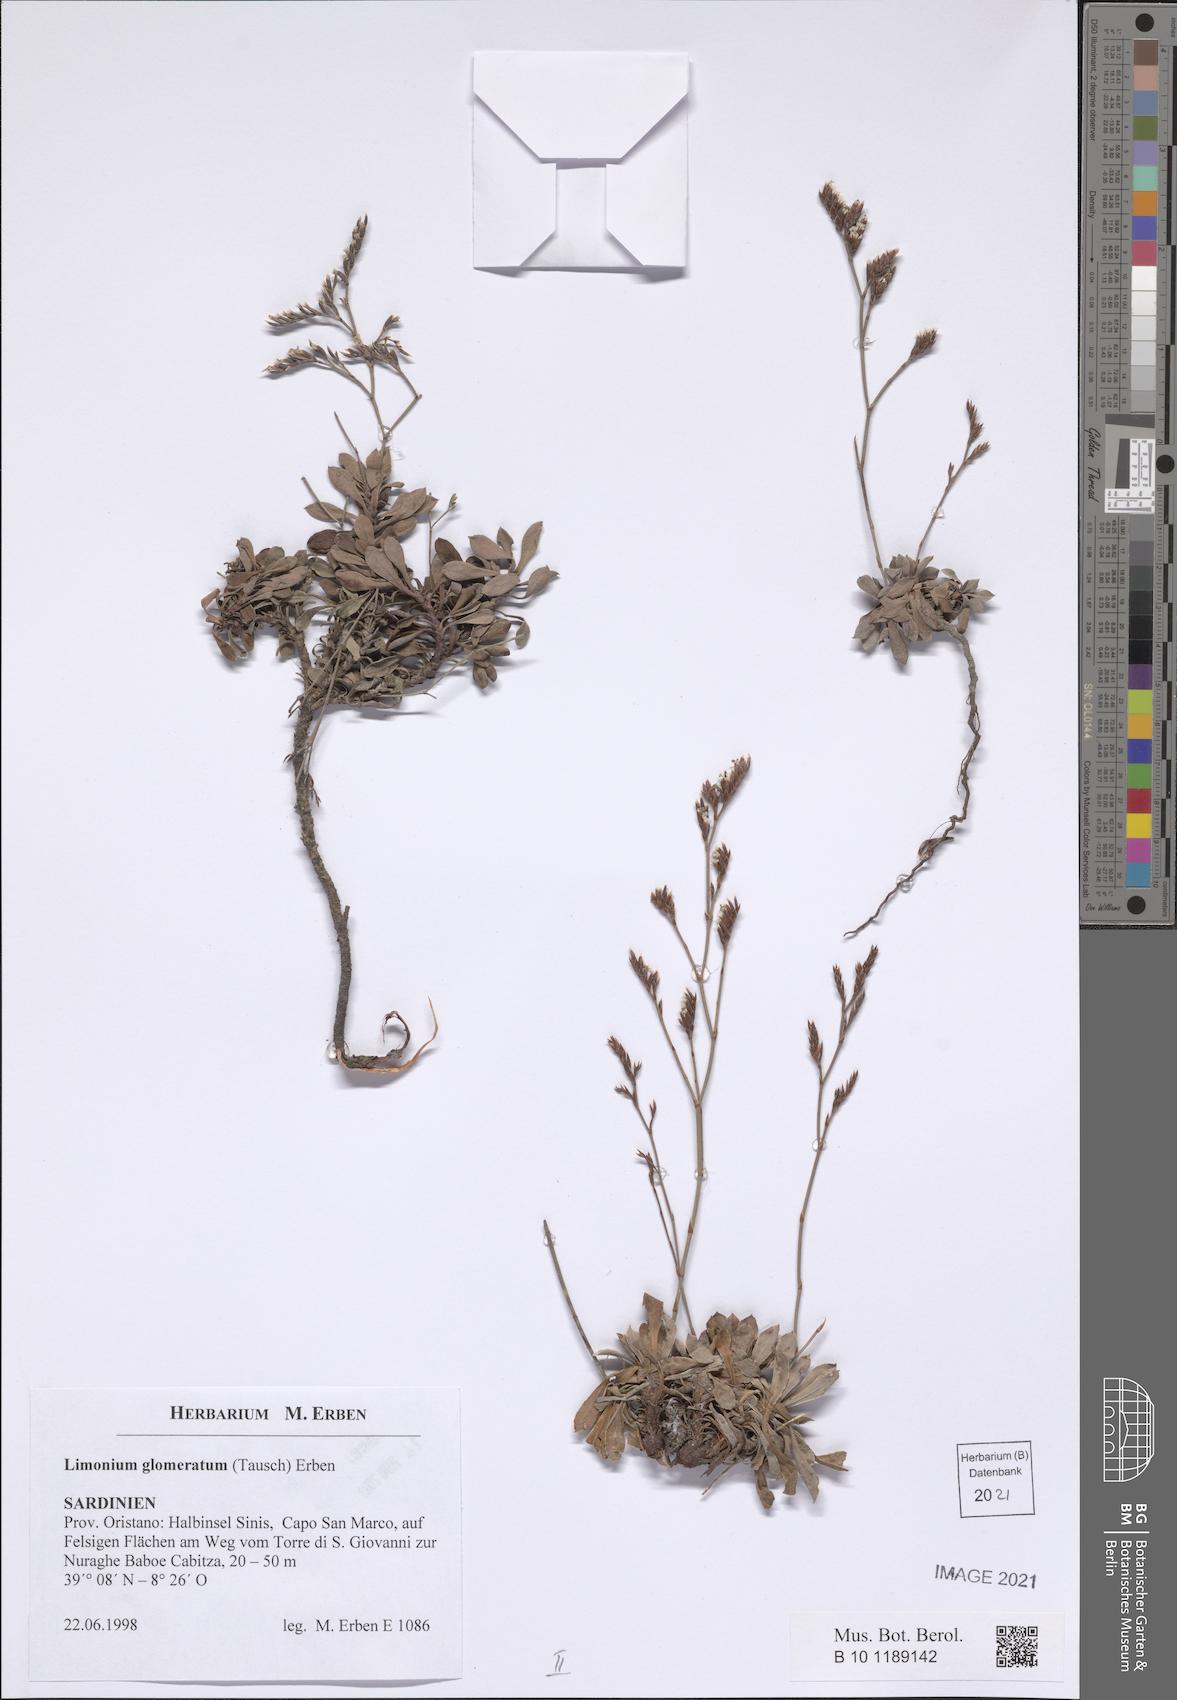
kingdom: Plantae
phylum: Tracheophyta
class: Magnoliopsida
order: Caryophyllales
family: Plumbaginaceae
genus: Limonium
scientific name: Limonium glomeratum
